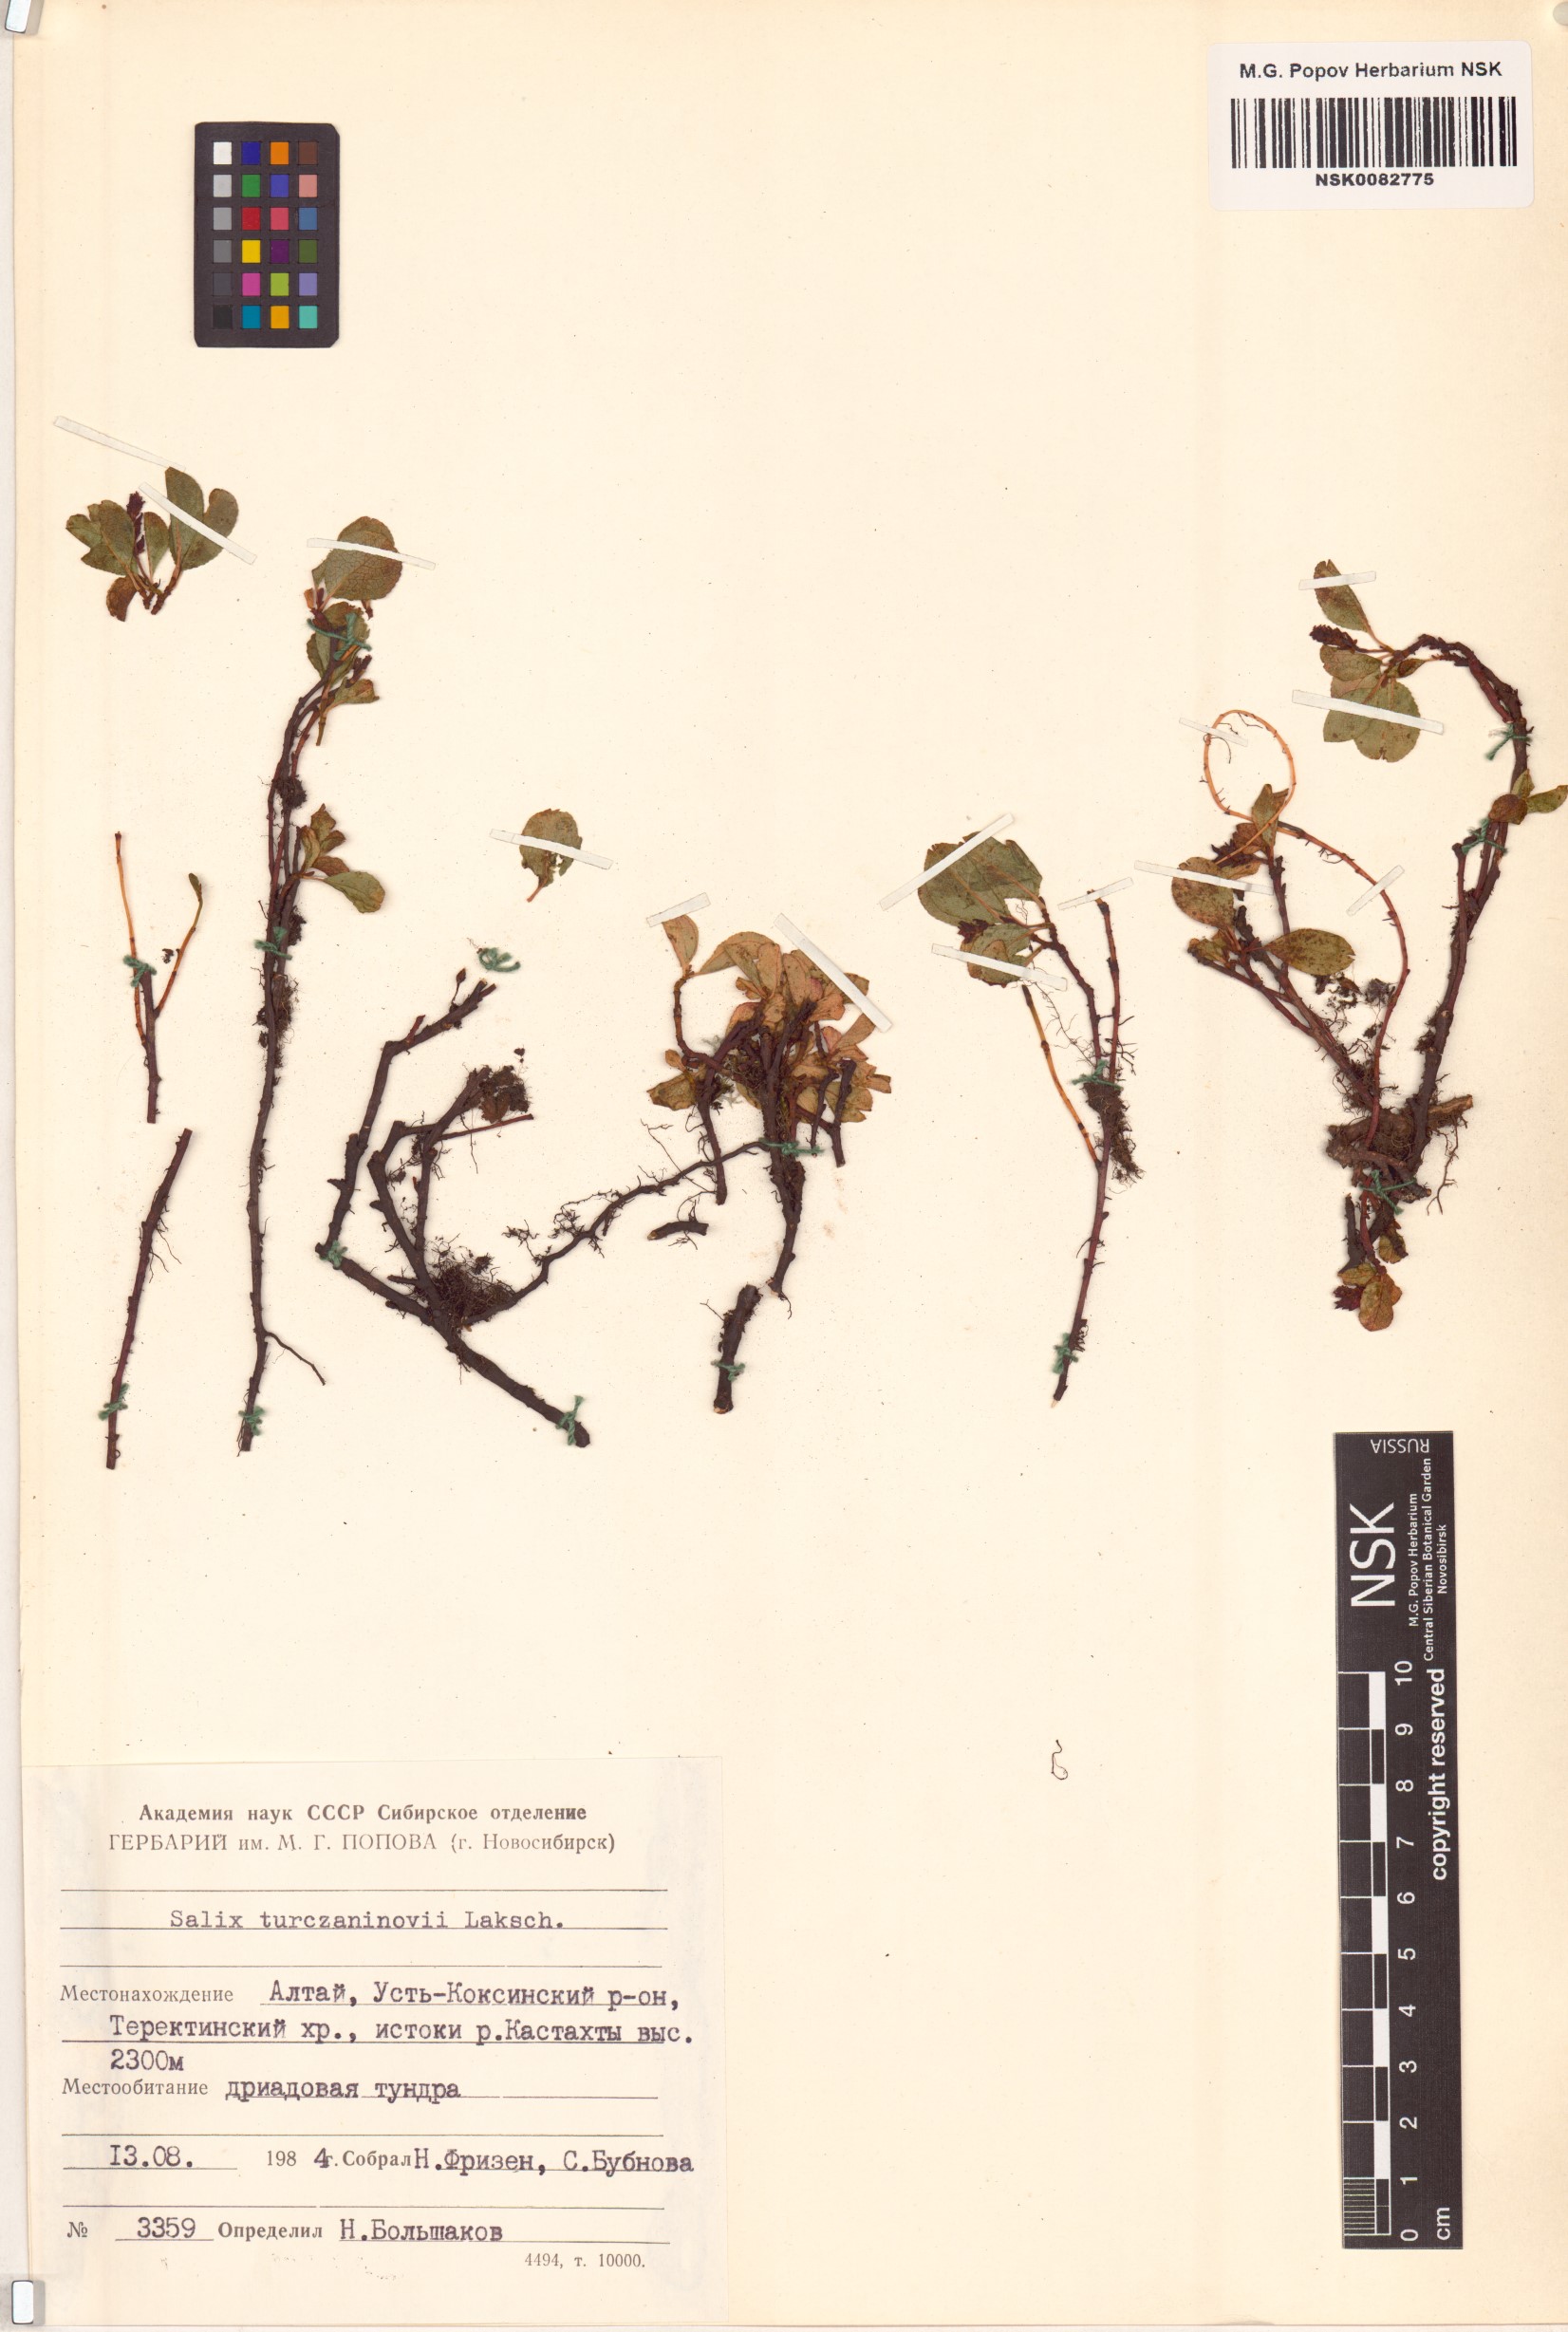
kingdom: Plantae
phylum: Tracheophyta
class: Magnoliopsida
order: Malpighiales
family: Salicaceae
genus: Salix
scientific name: Salix turczaninowii
